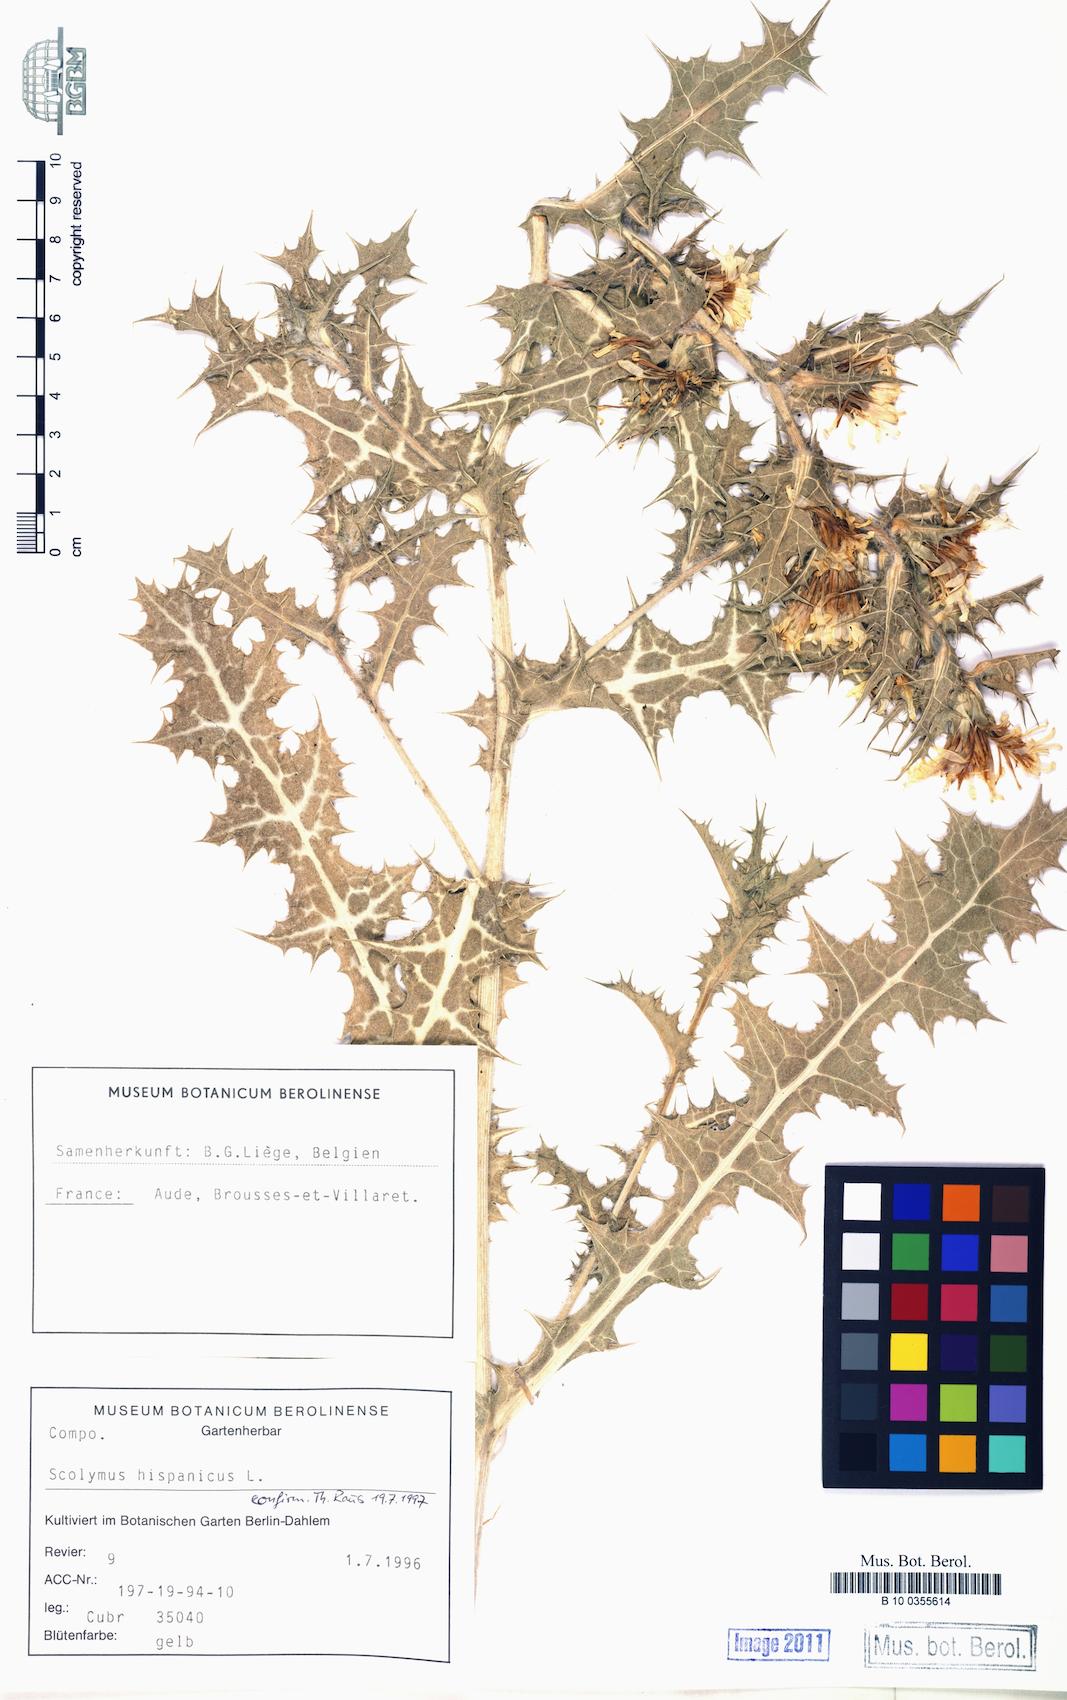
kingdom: Plantae
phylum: Tracheophyta
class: Magnoliopsida
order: Asterales
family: Asteraceae
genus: Scolymus
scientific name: Scolymus hispanicus
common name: Golden thistle
